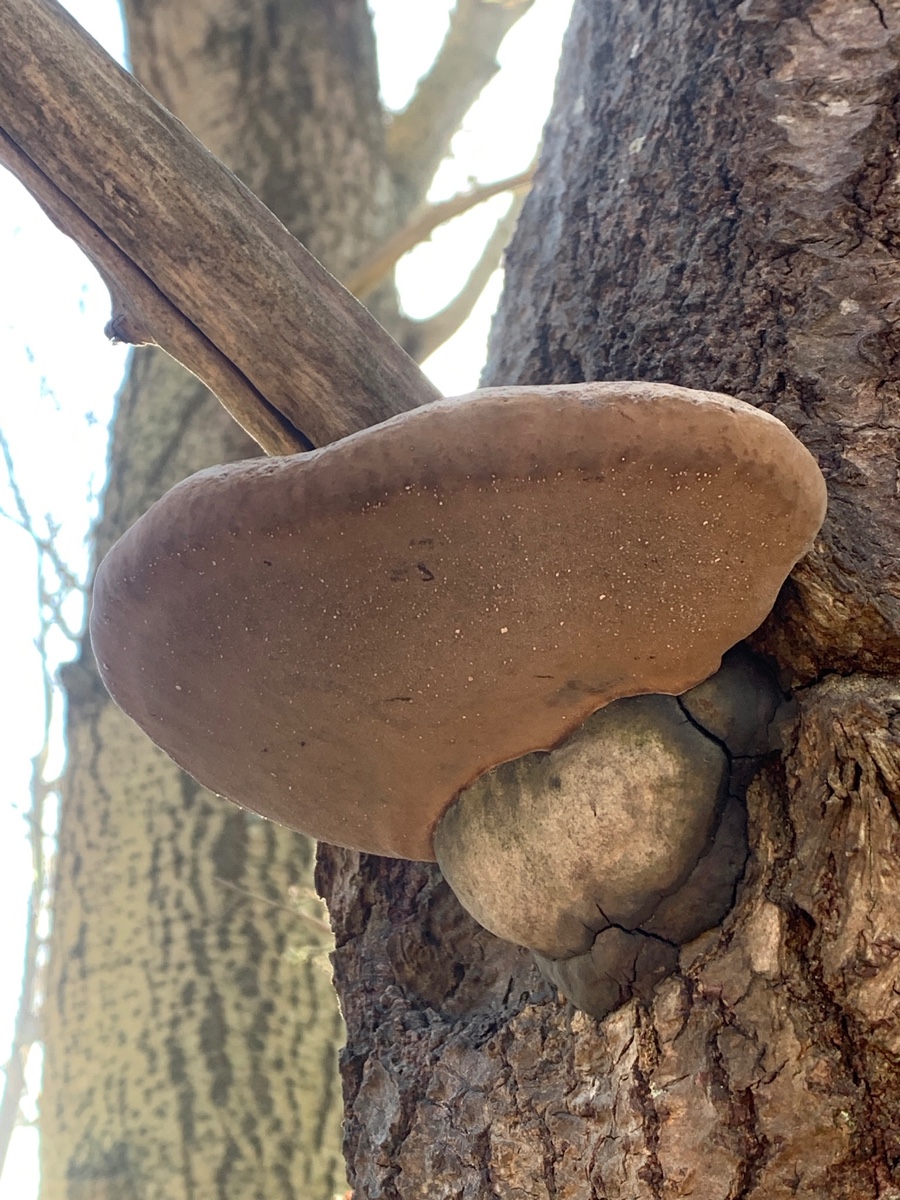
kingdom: Fungi
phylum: Basidiomycota
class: Agaricomycetes
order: Hymenochaetales
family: Hymenochaetaceae
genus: Phellinus
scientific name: Phellinus populicola
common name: poppel-ildporesvamp
